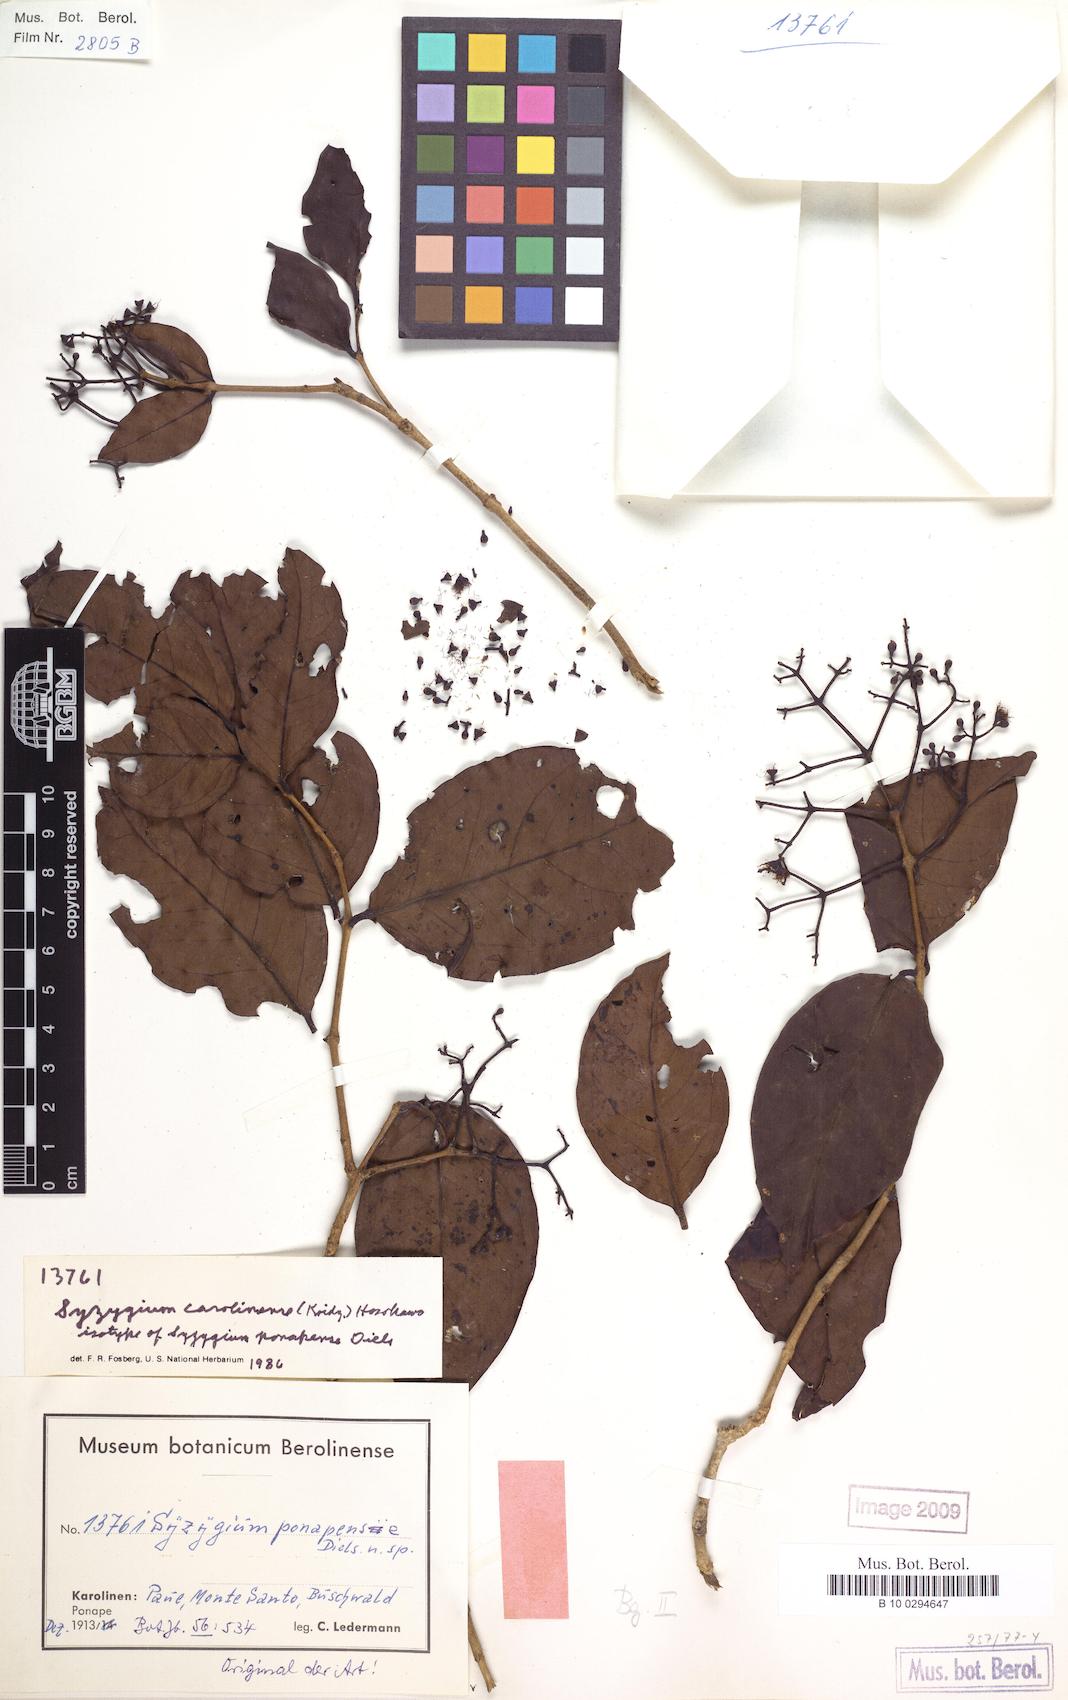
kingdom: Plantae
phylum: Tracheophyta
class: Magnoliopsida
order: Myrtales
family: Myrtaceae
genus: Syzygium
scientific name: Syzygium carolinense
